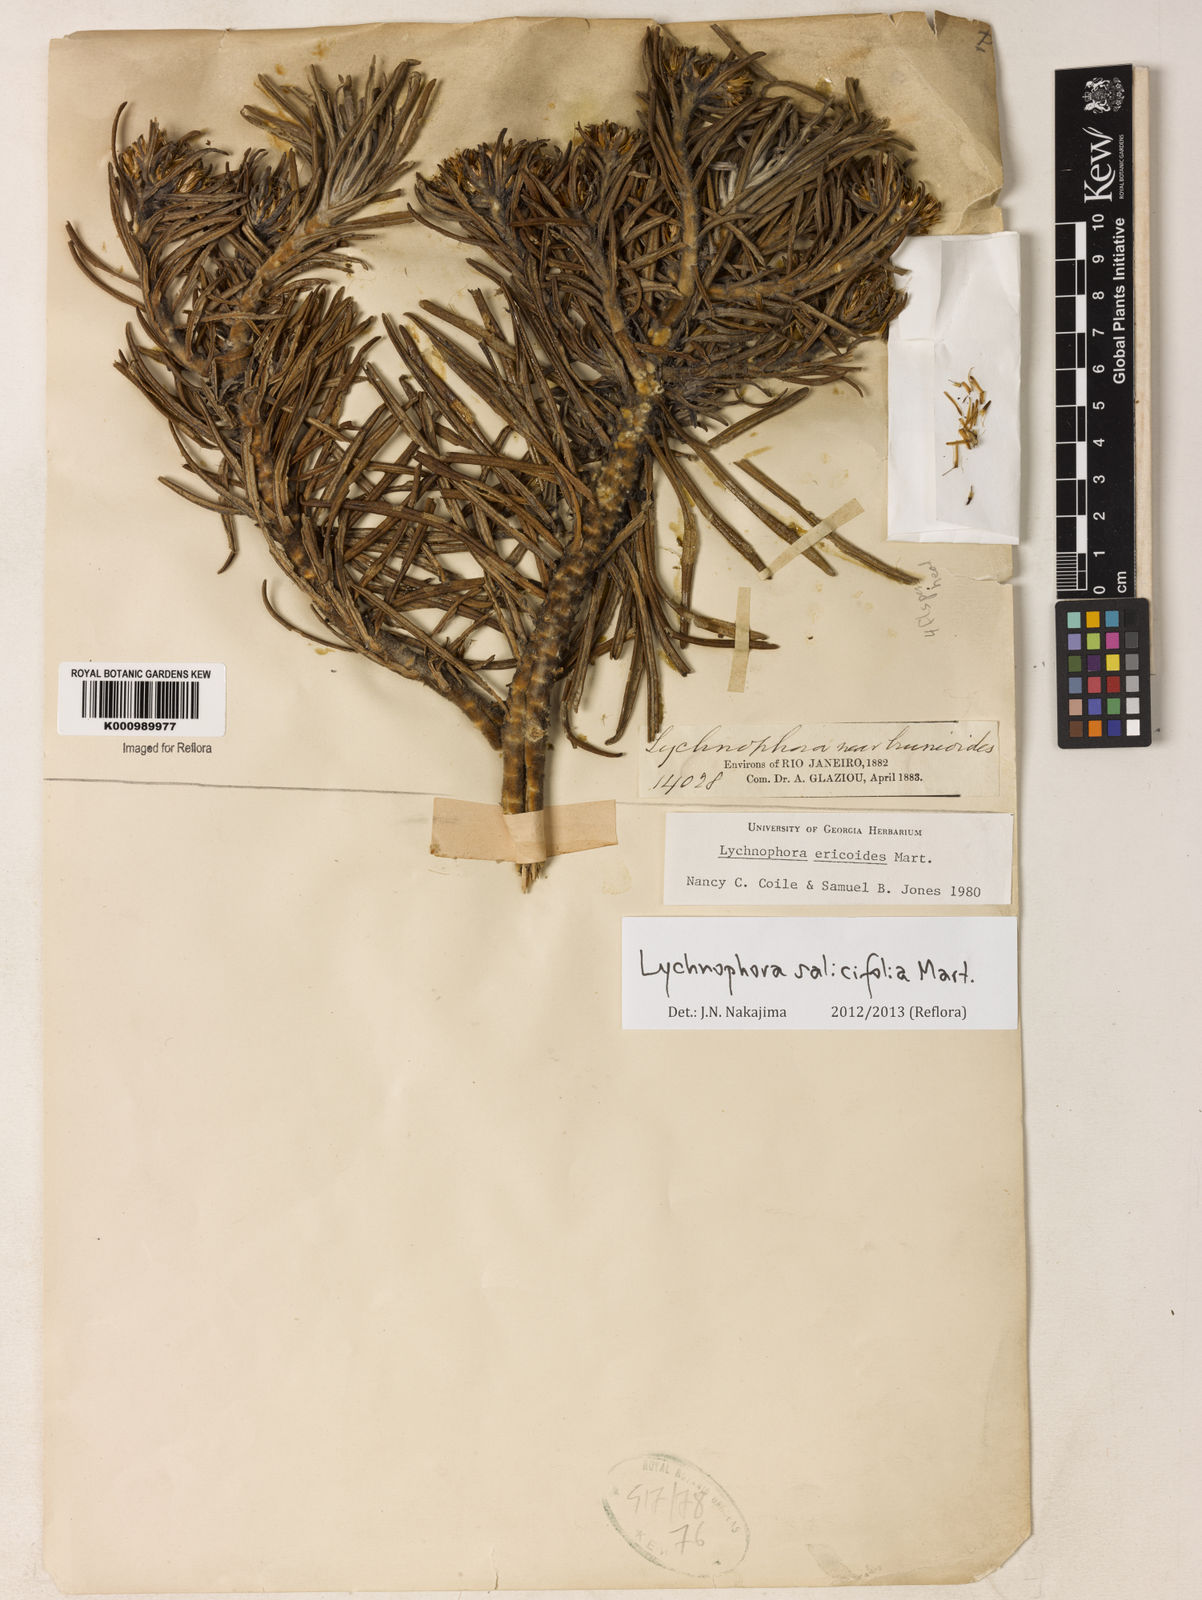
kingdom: Plantae
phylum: Tracheophyta
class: Magnoliopsida
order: Asterales
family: Asteraceae
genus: Lychnophora
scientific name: Lychnophora salicifolia
